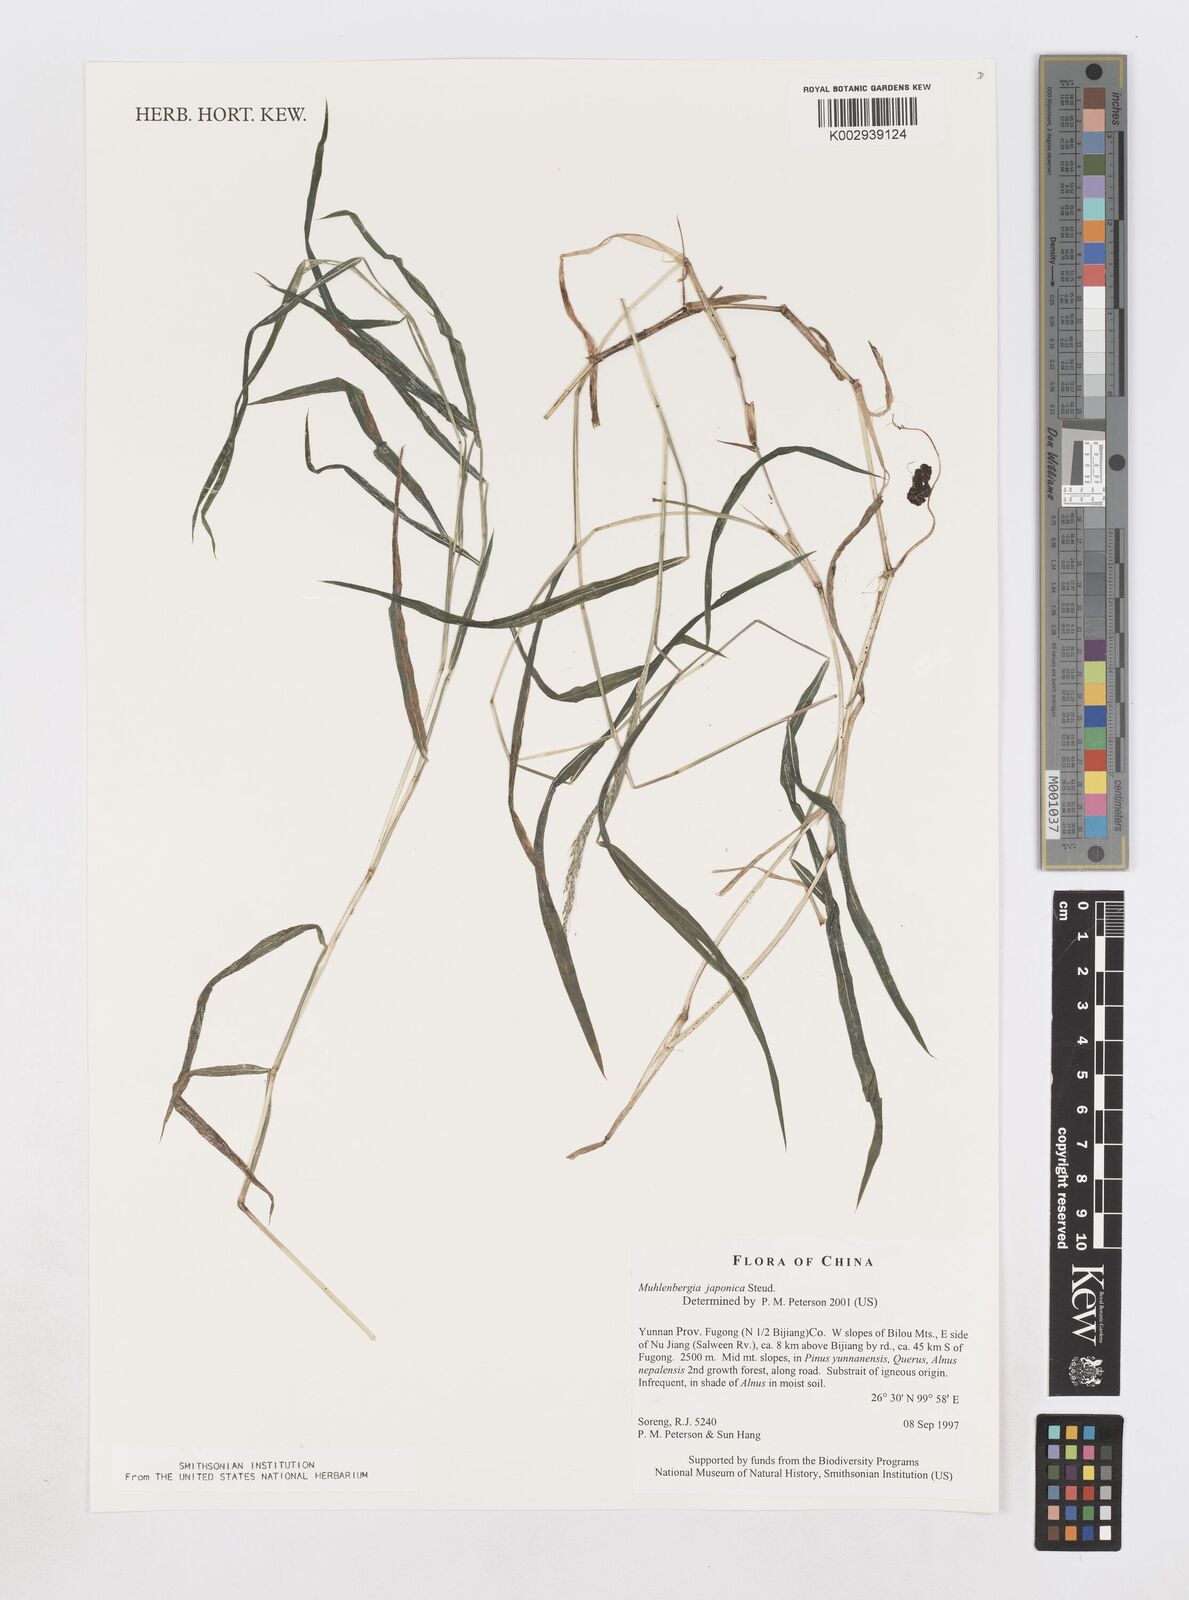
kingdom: Plantae
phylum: Tracheophyta
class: Liliopsida
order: Poales
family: Poaceae
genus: Muhlenbergia
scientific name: Muhlenbergia japonica
